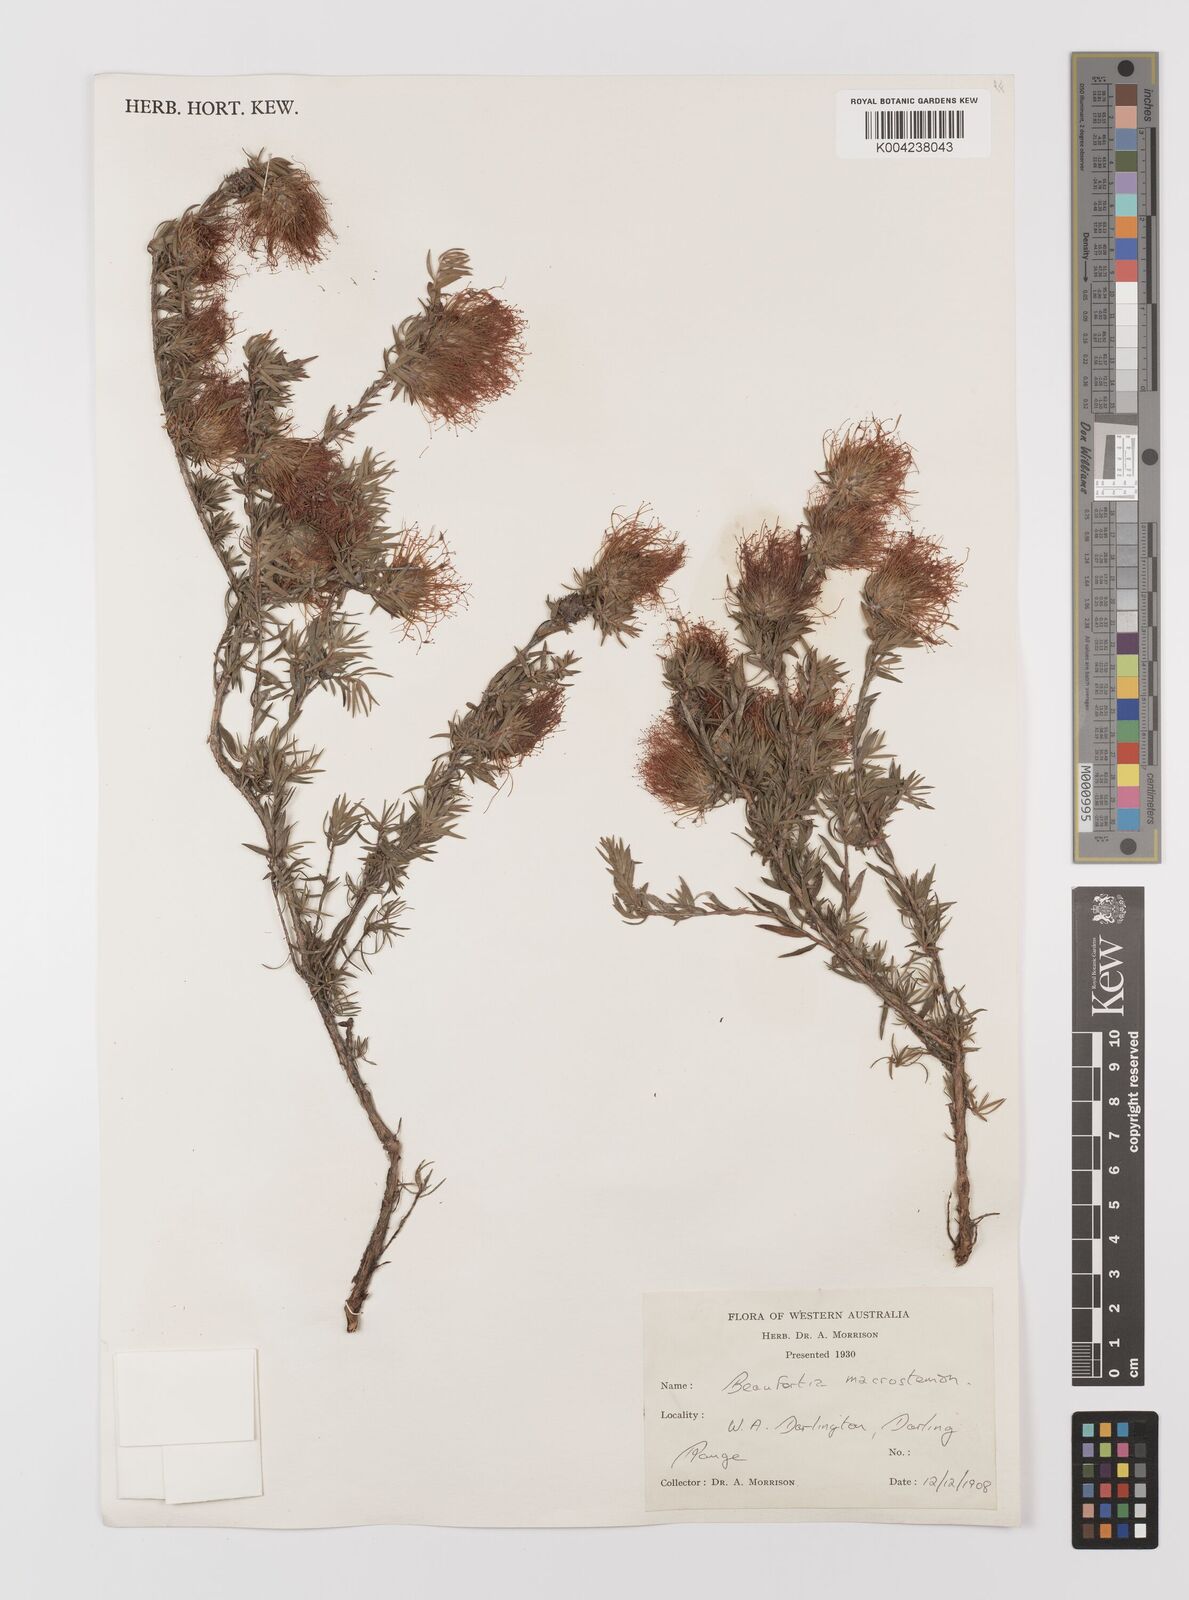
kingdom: Plantae
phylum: Tracheophyta
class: Magnoliopsida
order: Myrtales
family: Myrtaceae
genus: Melaleuca
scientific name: Melaleuca macrostemon
